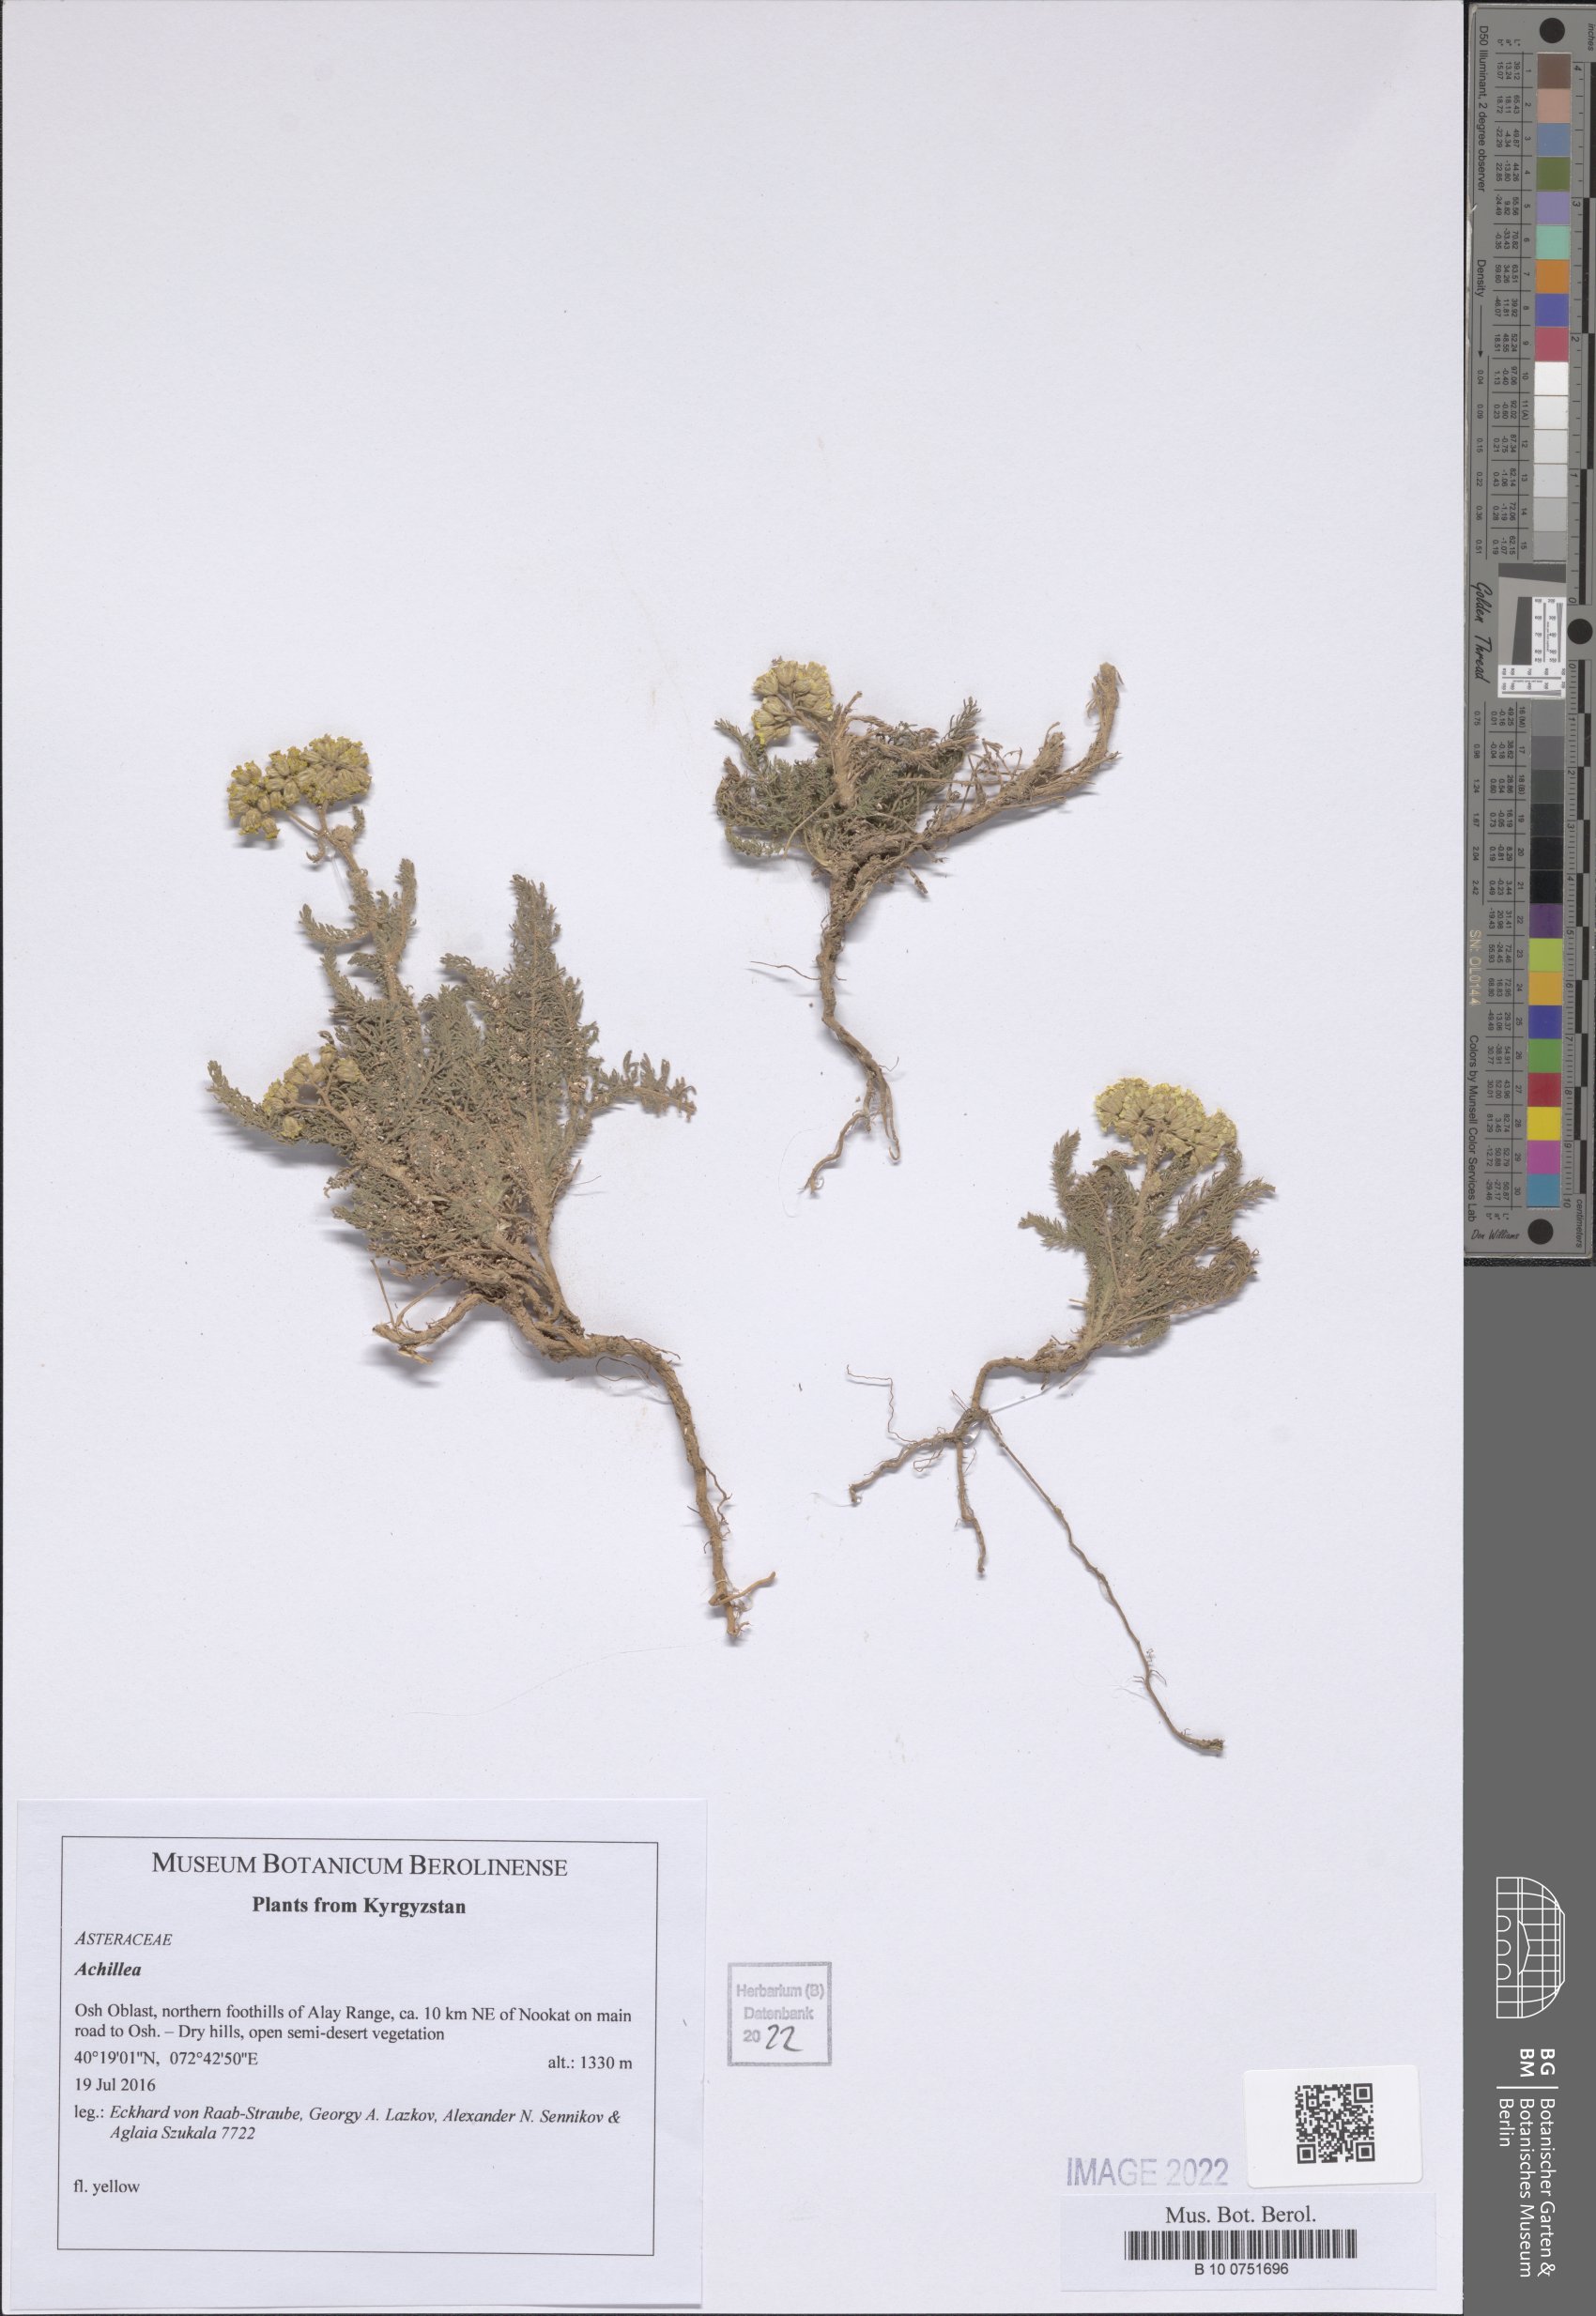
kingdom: Plantae
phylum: Tracheophyta
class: Magnoliopsida
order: Asterales
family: Asteraceae
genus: Achillea
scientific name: Achillea
